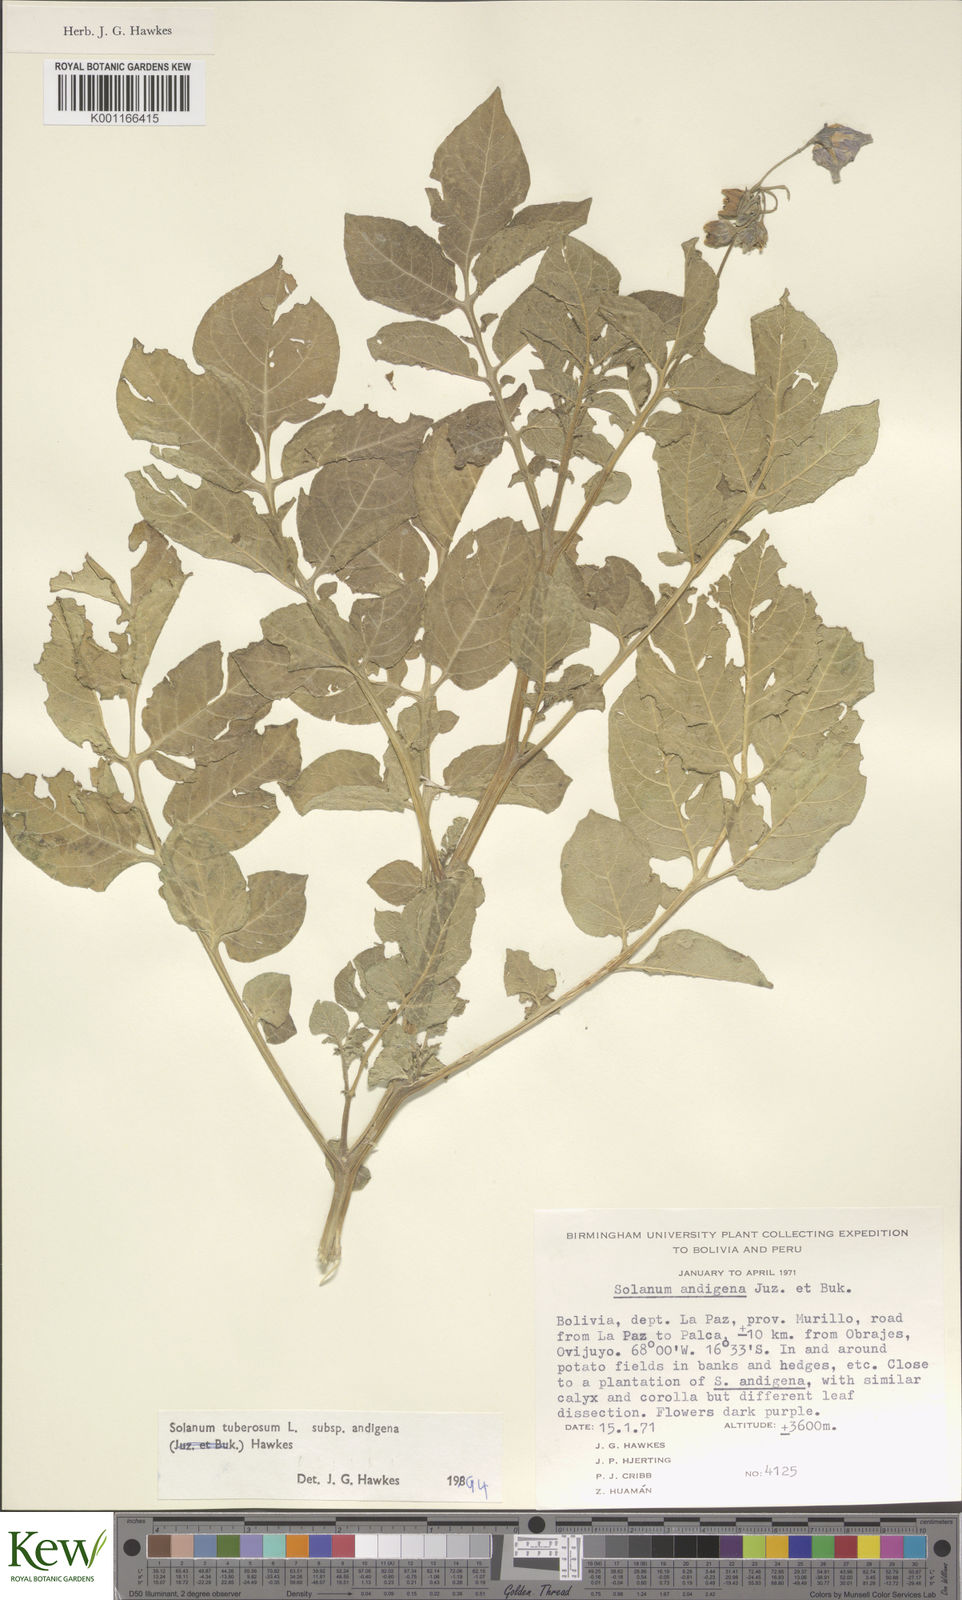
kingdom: Plantae
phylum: Tracheophyta
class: Magnoliopsida
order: Solanales
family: Solanaceae
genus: Solanum
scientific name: Solanum tuberosum
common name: Potato
